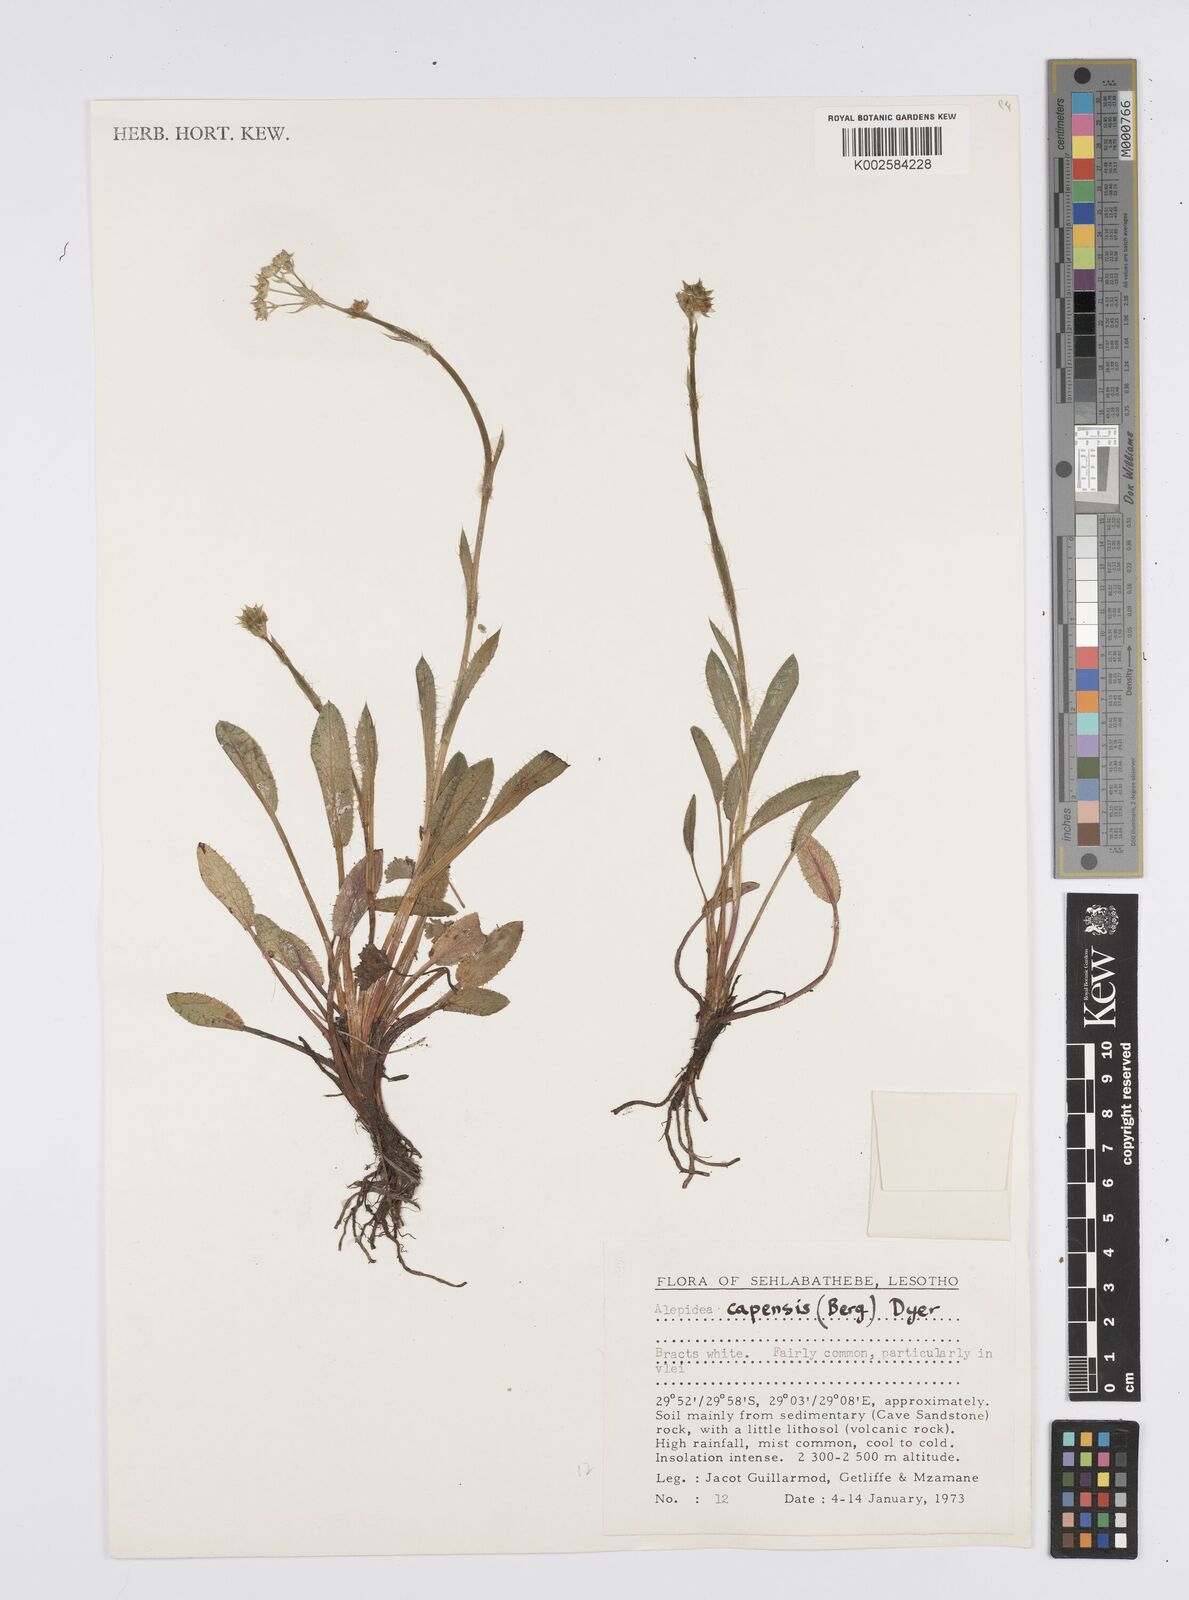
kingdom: Plantae
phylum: Tracheophyta
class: Magnoliopsida
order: Apiales
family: Apiaceae
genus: Alepidea
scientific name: Alepidea pusilla
